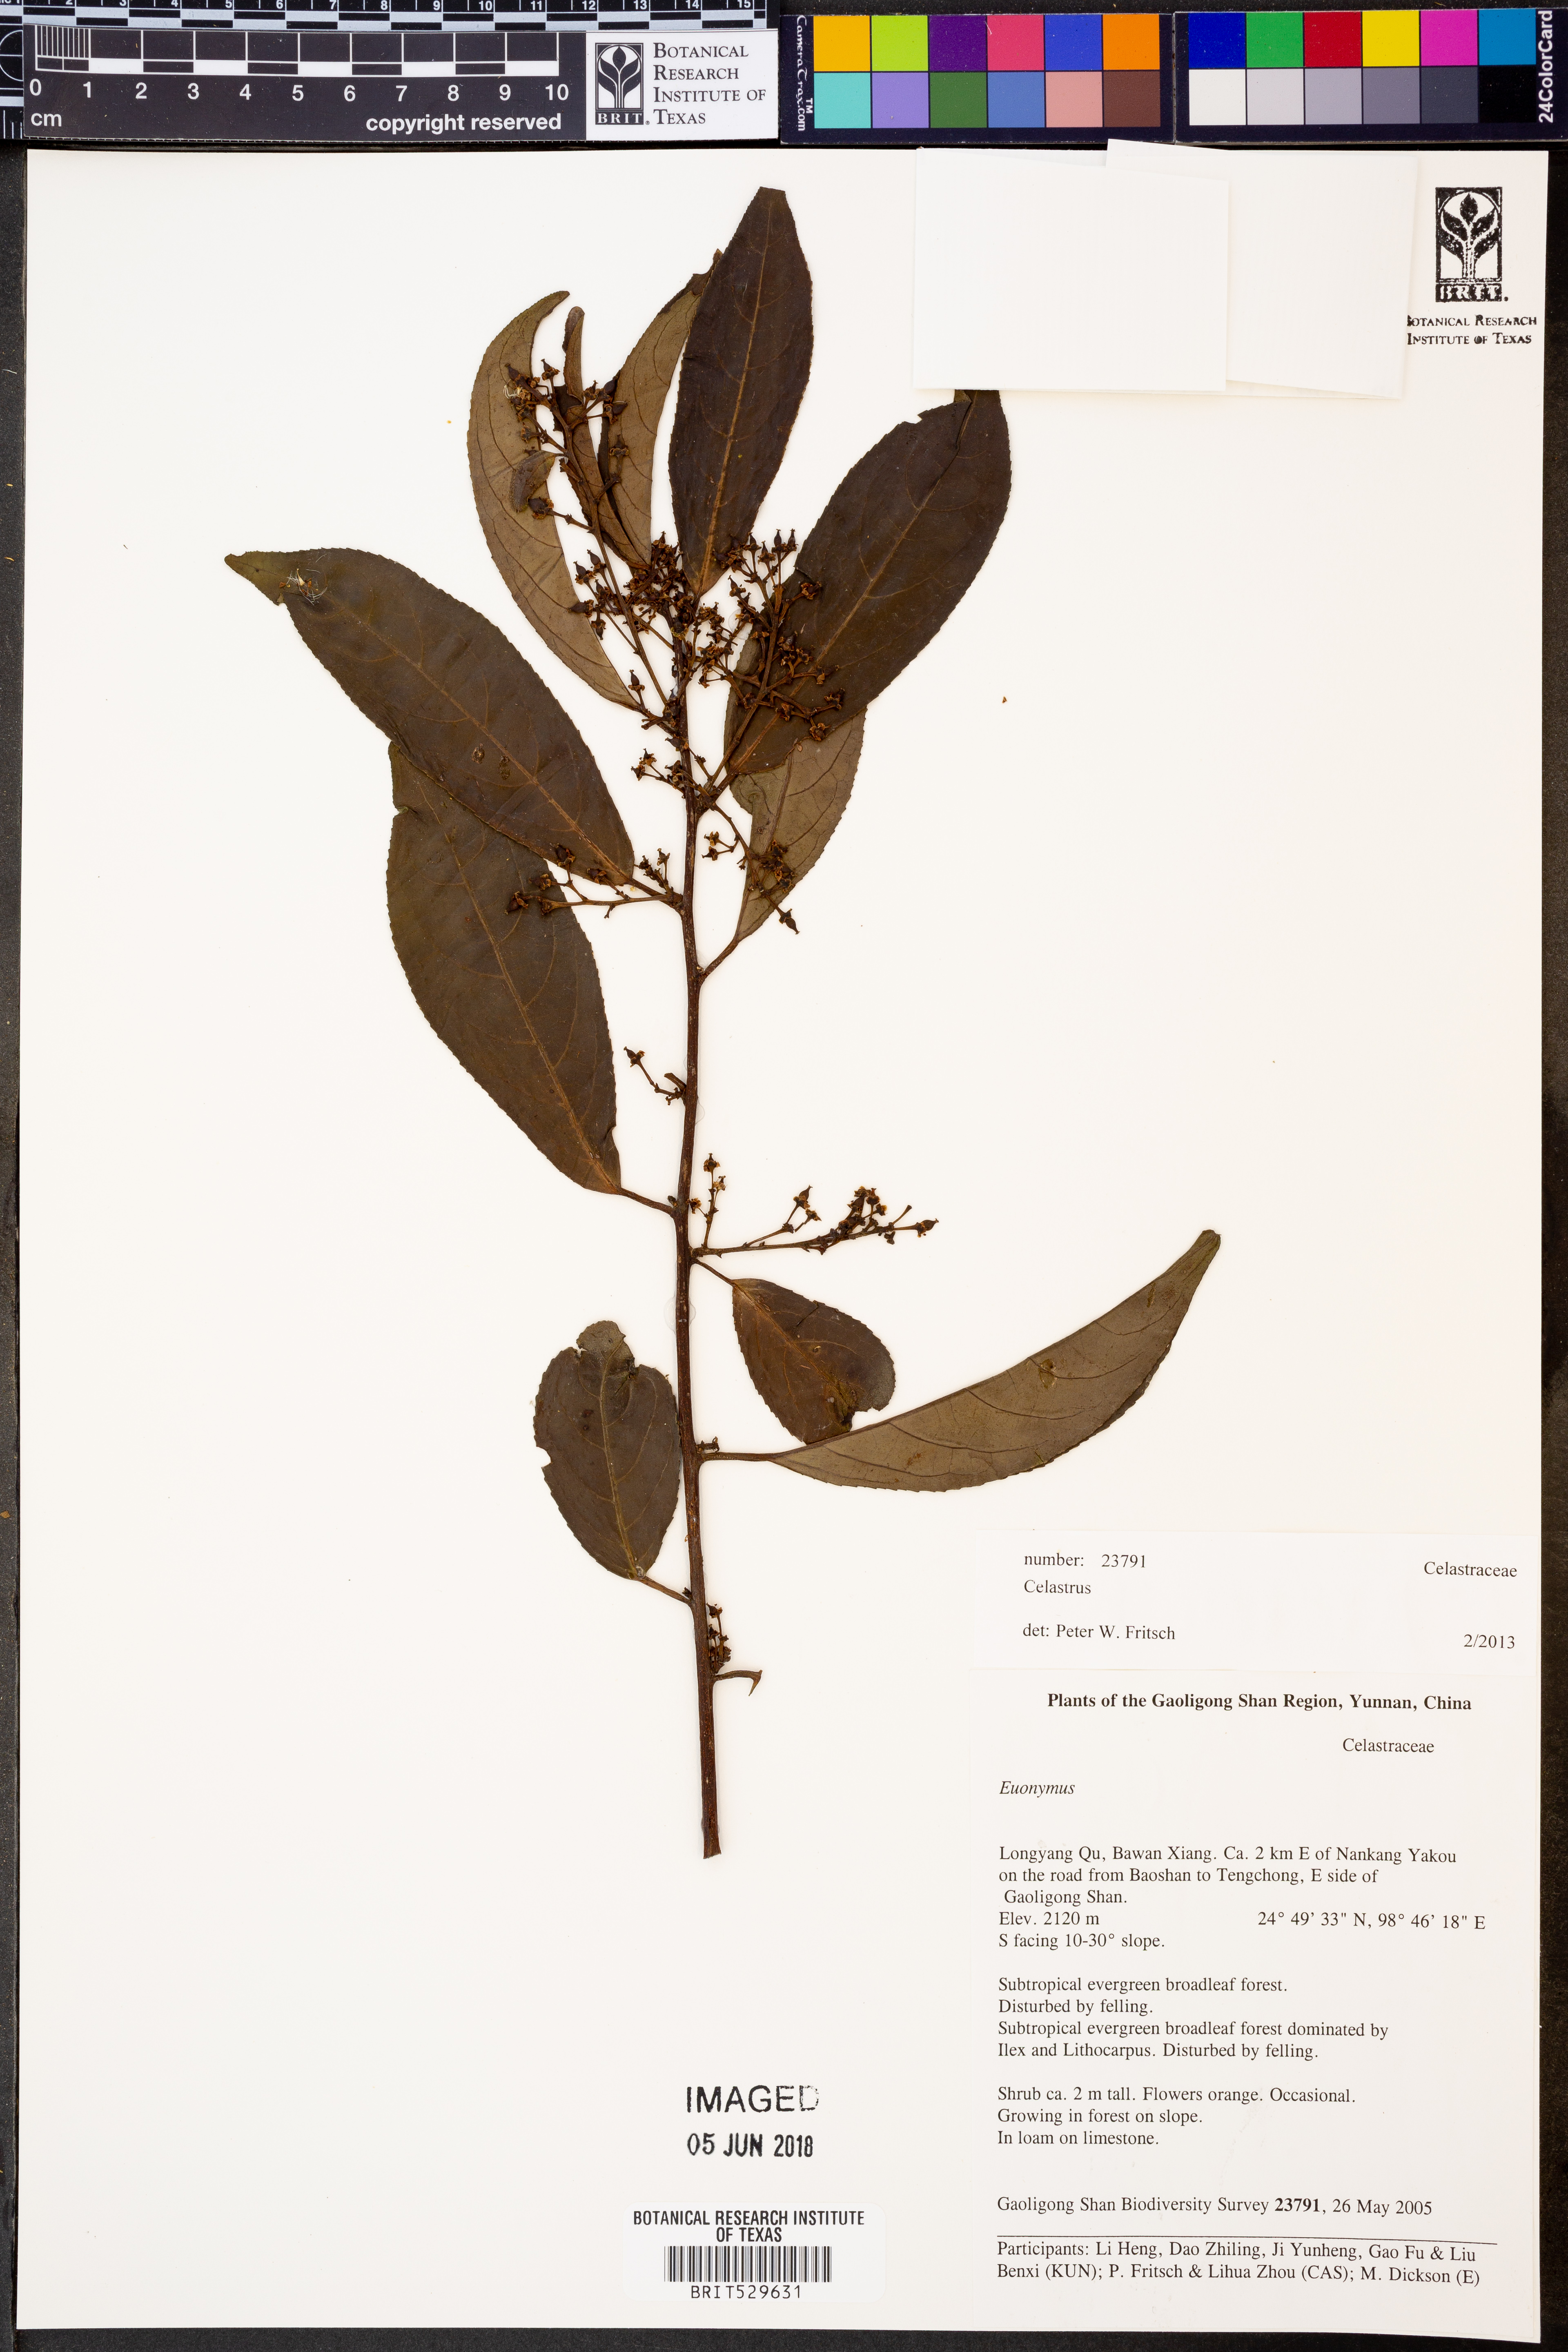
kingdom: Plantae
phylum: Tracheophyta
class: Magnoliopsida
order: Celastrales
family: Celastraceae
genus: Celastrus
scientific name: Celastrus
